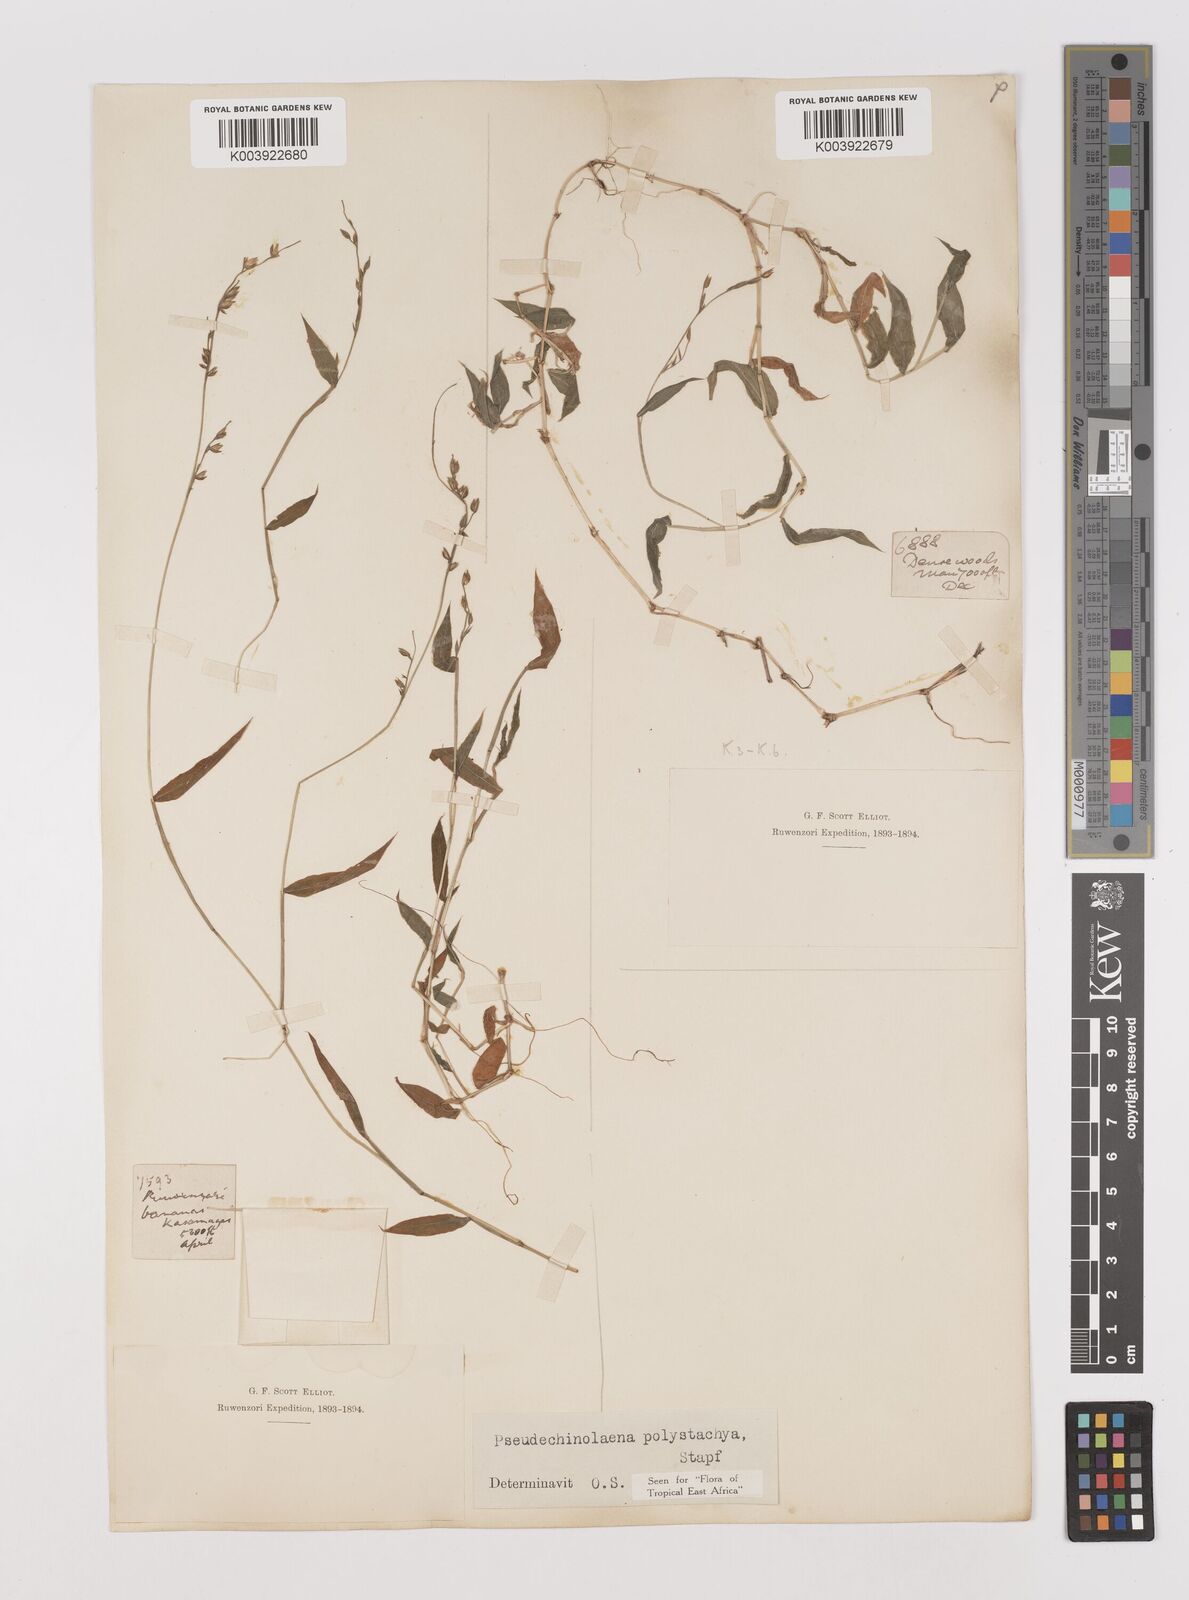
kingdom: Plantae
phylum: Tracheophyta
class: Liliopsida
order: Poales
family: Poaceae
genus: Pseudechinolaena
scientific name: Pseudechinolaena polystachya
